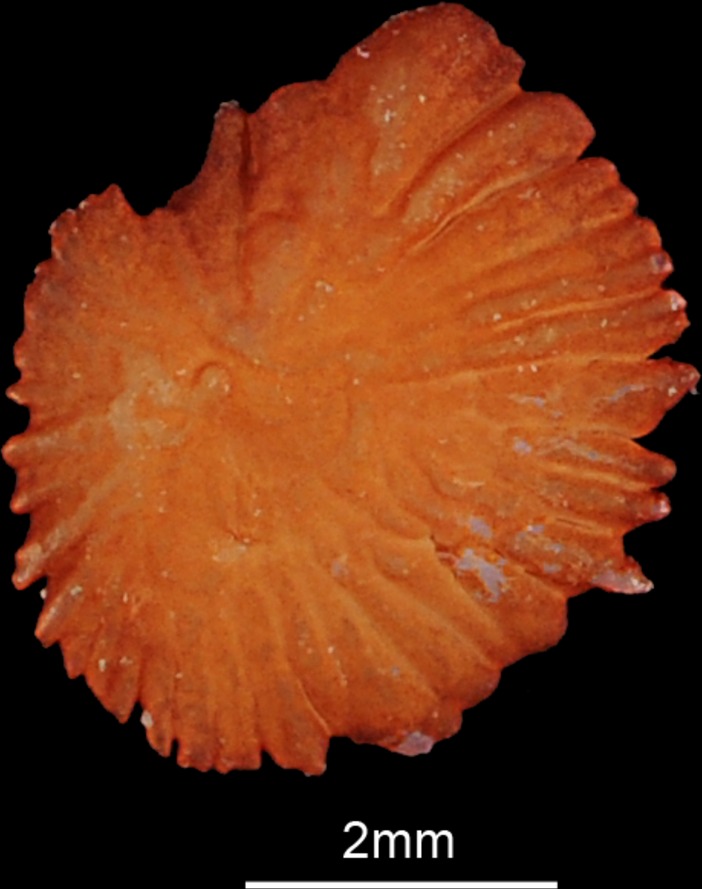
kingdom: Animalia
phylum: Chordata
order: Cypriniformes
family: Cyprinidae
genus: Leuciscus
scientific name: Leuciscus aspius
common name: Asp
